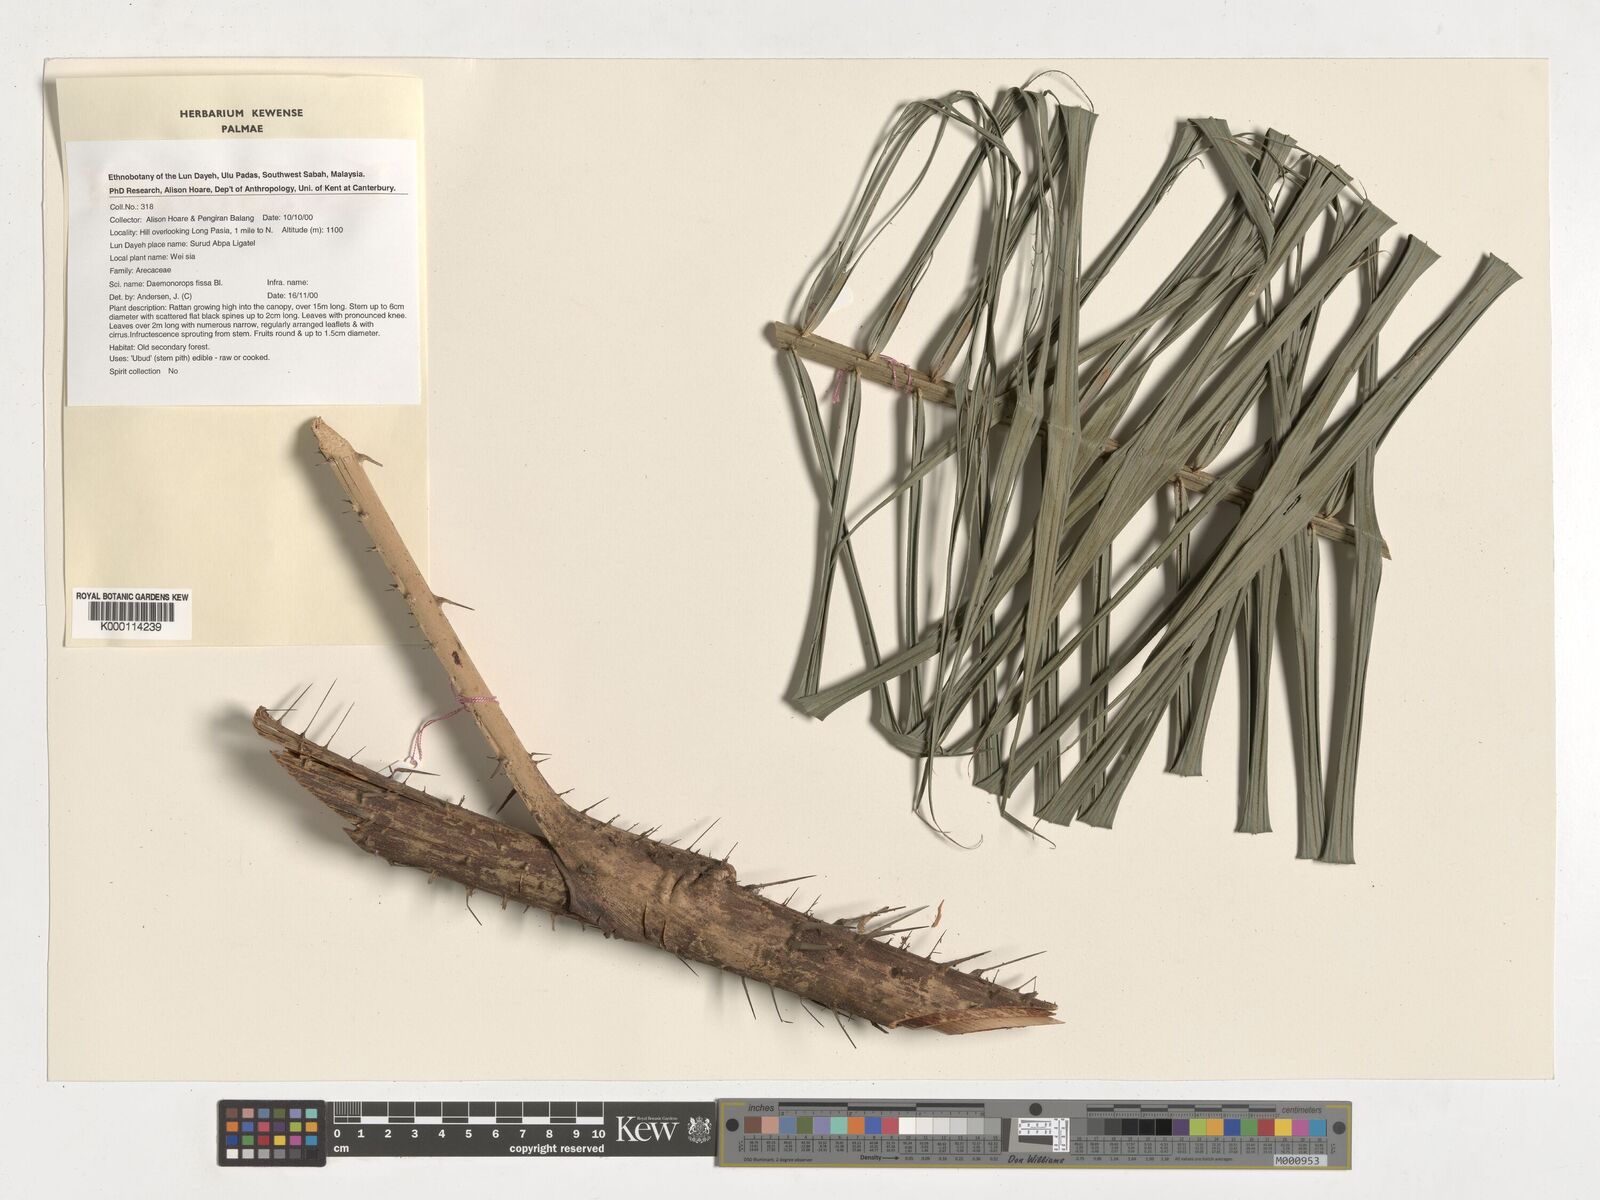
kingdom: Plantae
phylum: Tracheophyta
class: Liliopsida
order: Arecales
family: Arecaceae
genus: Calamus
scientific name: Calamus melanochaetes
